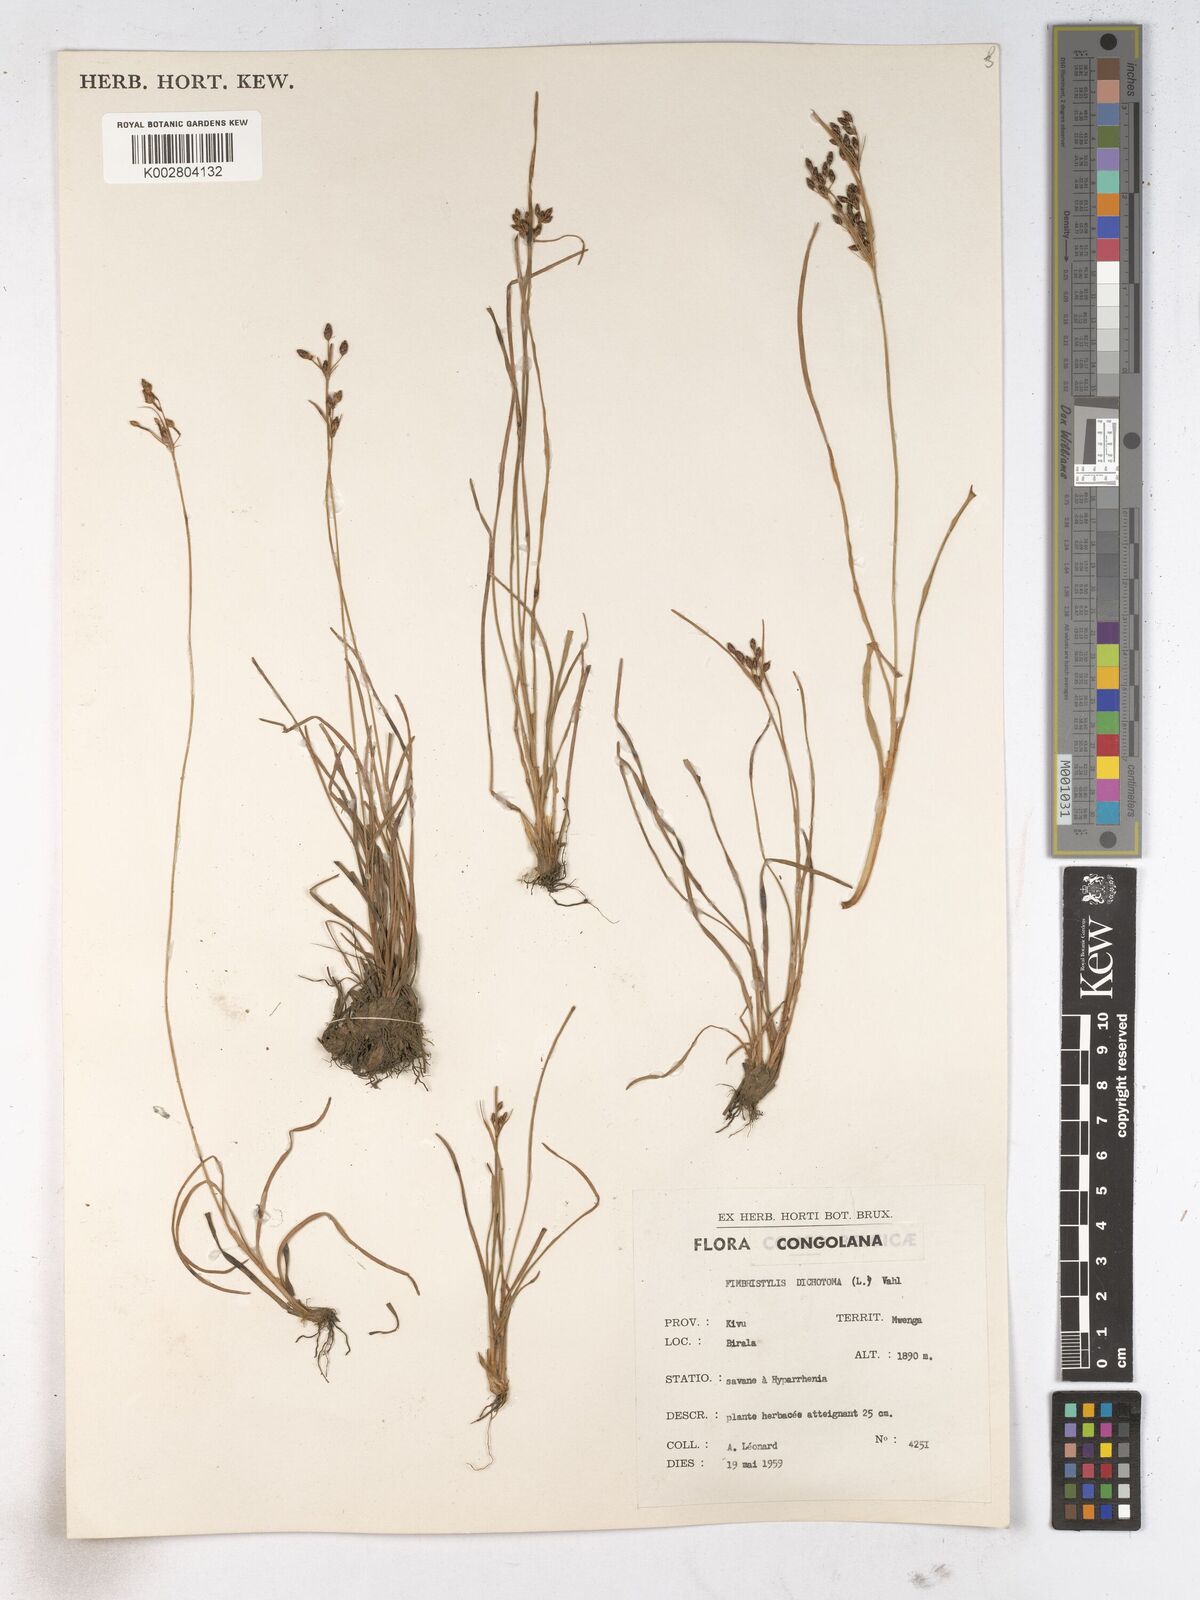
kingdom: Plantae
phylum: Tracheophyta
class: Liliopsida
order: Poales
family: Cyperaceae
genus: Fimbristylis
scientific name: Fimbristylis dichotoma
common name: Forked fimbry
